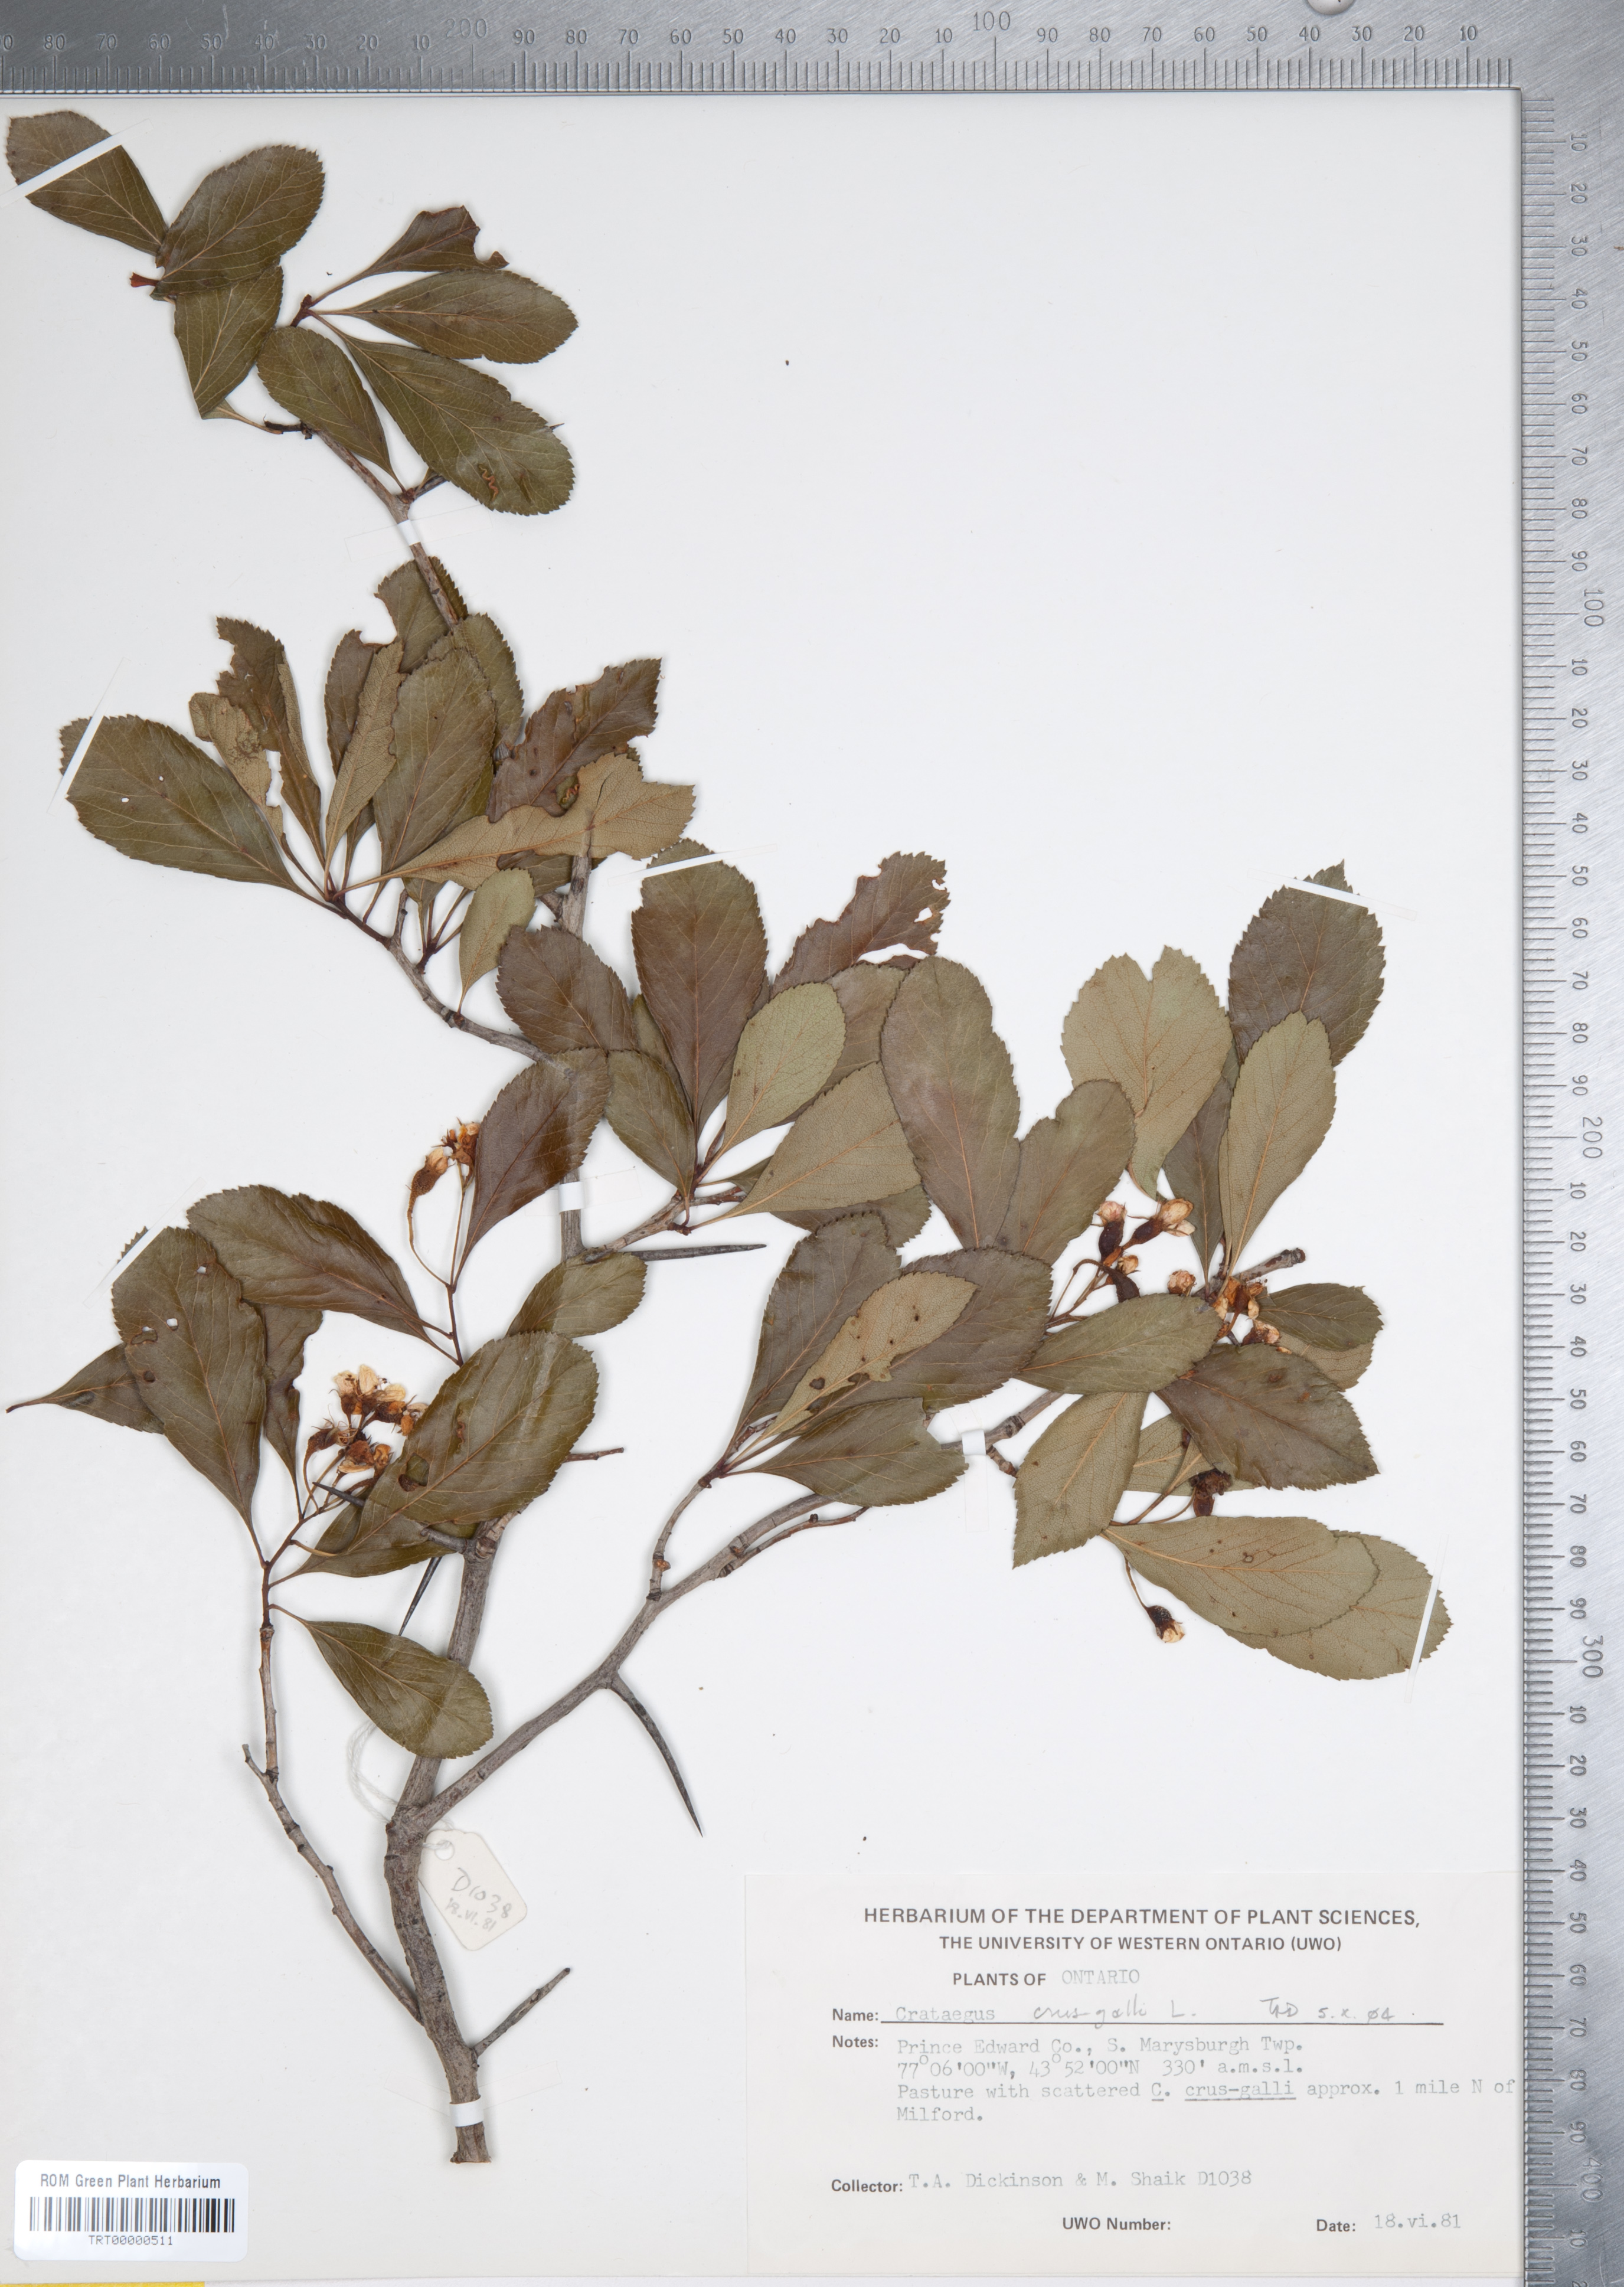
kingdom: Plantae
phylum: Tracheophyta
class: Magnoliopsida
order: Rosales
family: Rosaceae
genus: Crataegus
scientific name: Crataegus crus-galli
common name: Cockspurthorn
